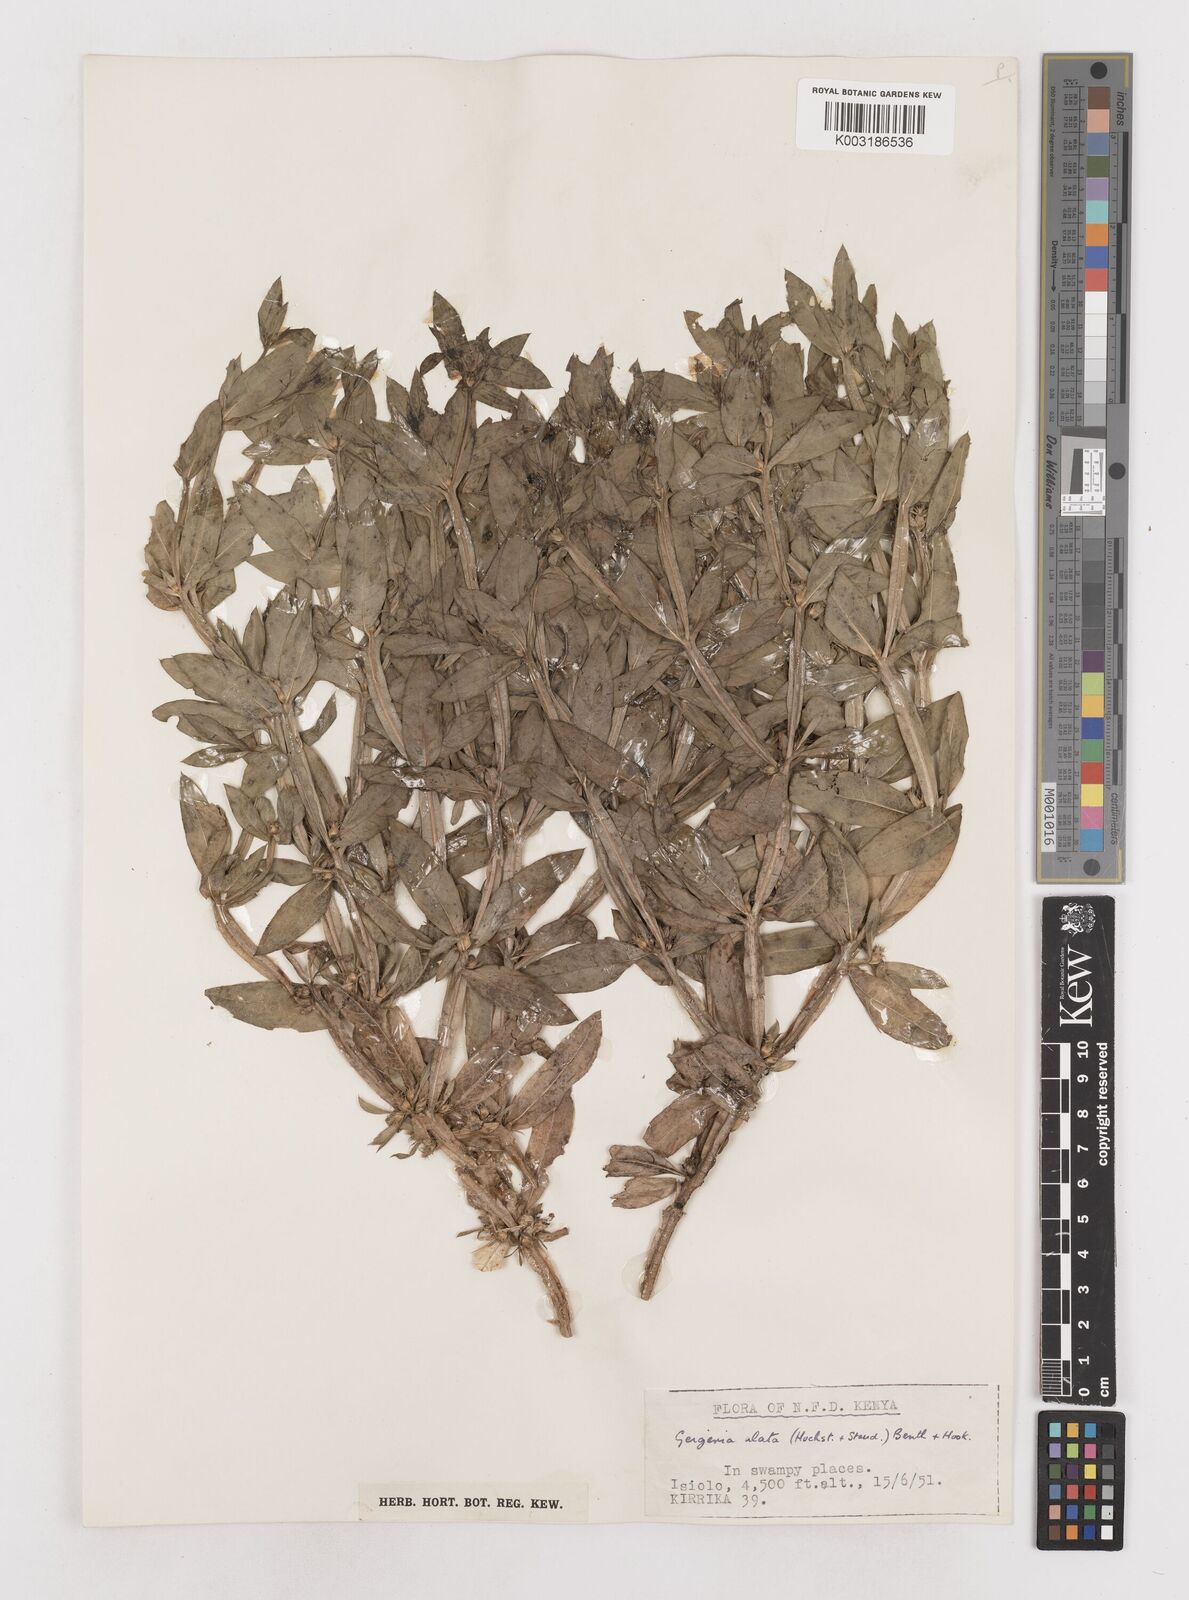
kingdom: Plantae
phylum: Tracheophyta
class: Magnoliopsida
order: Asterales
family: Asteraceae
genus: Geigeria
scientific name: Geigeria alata
